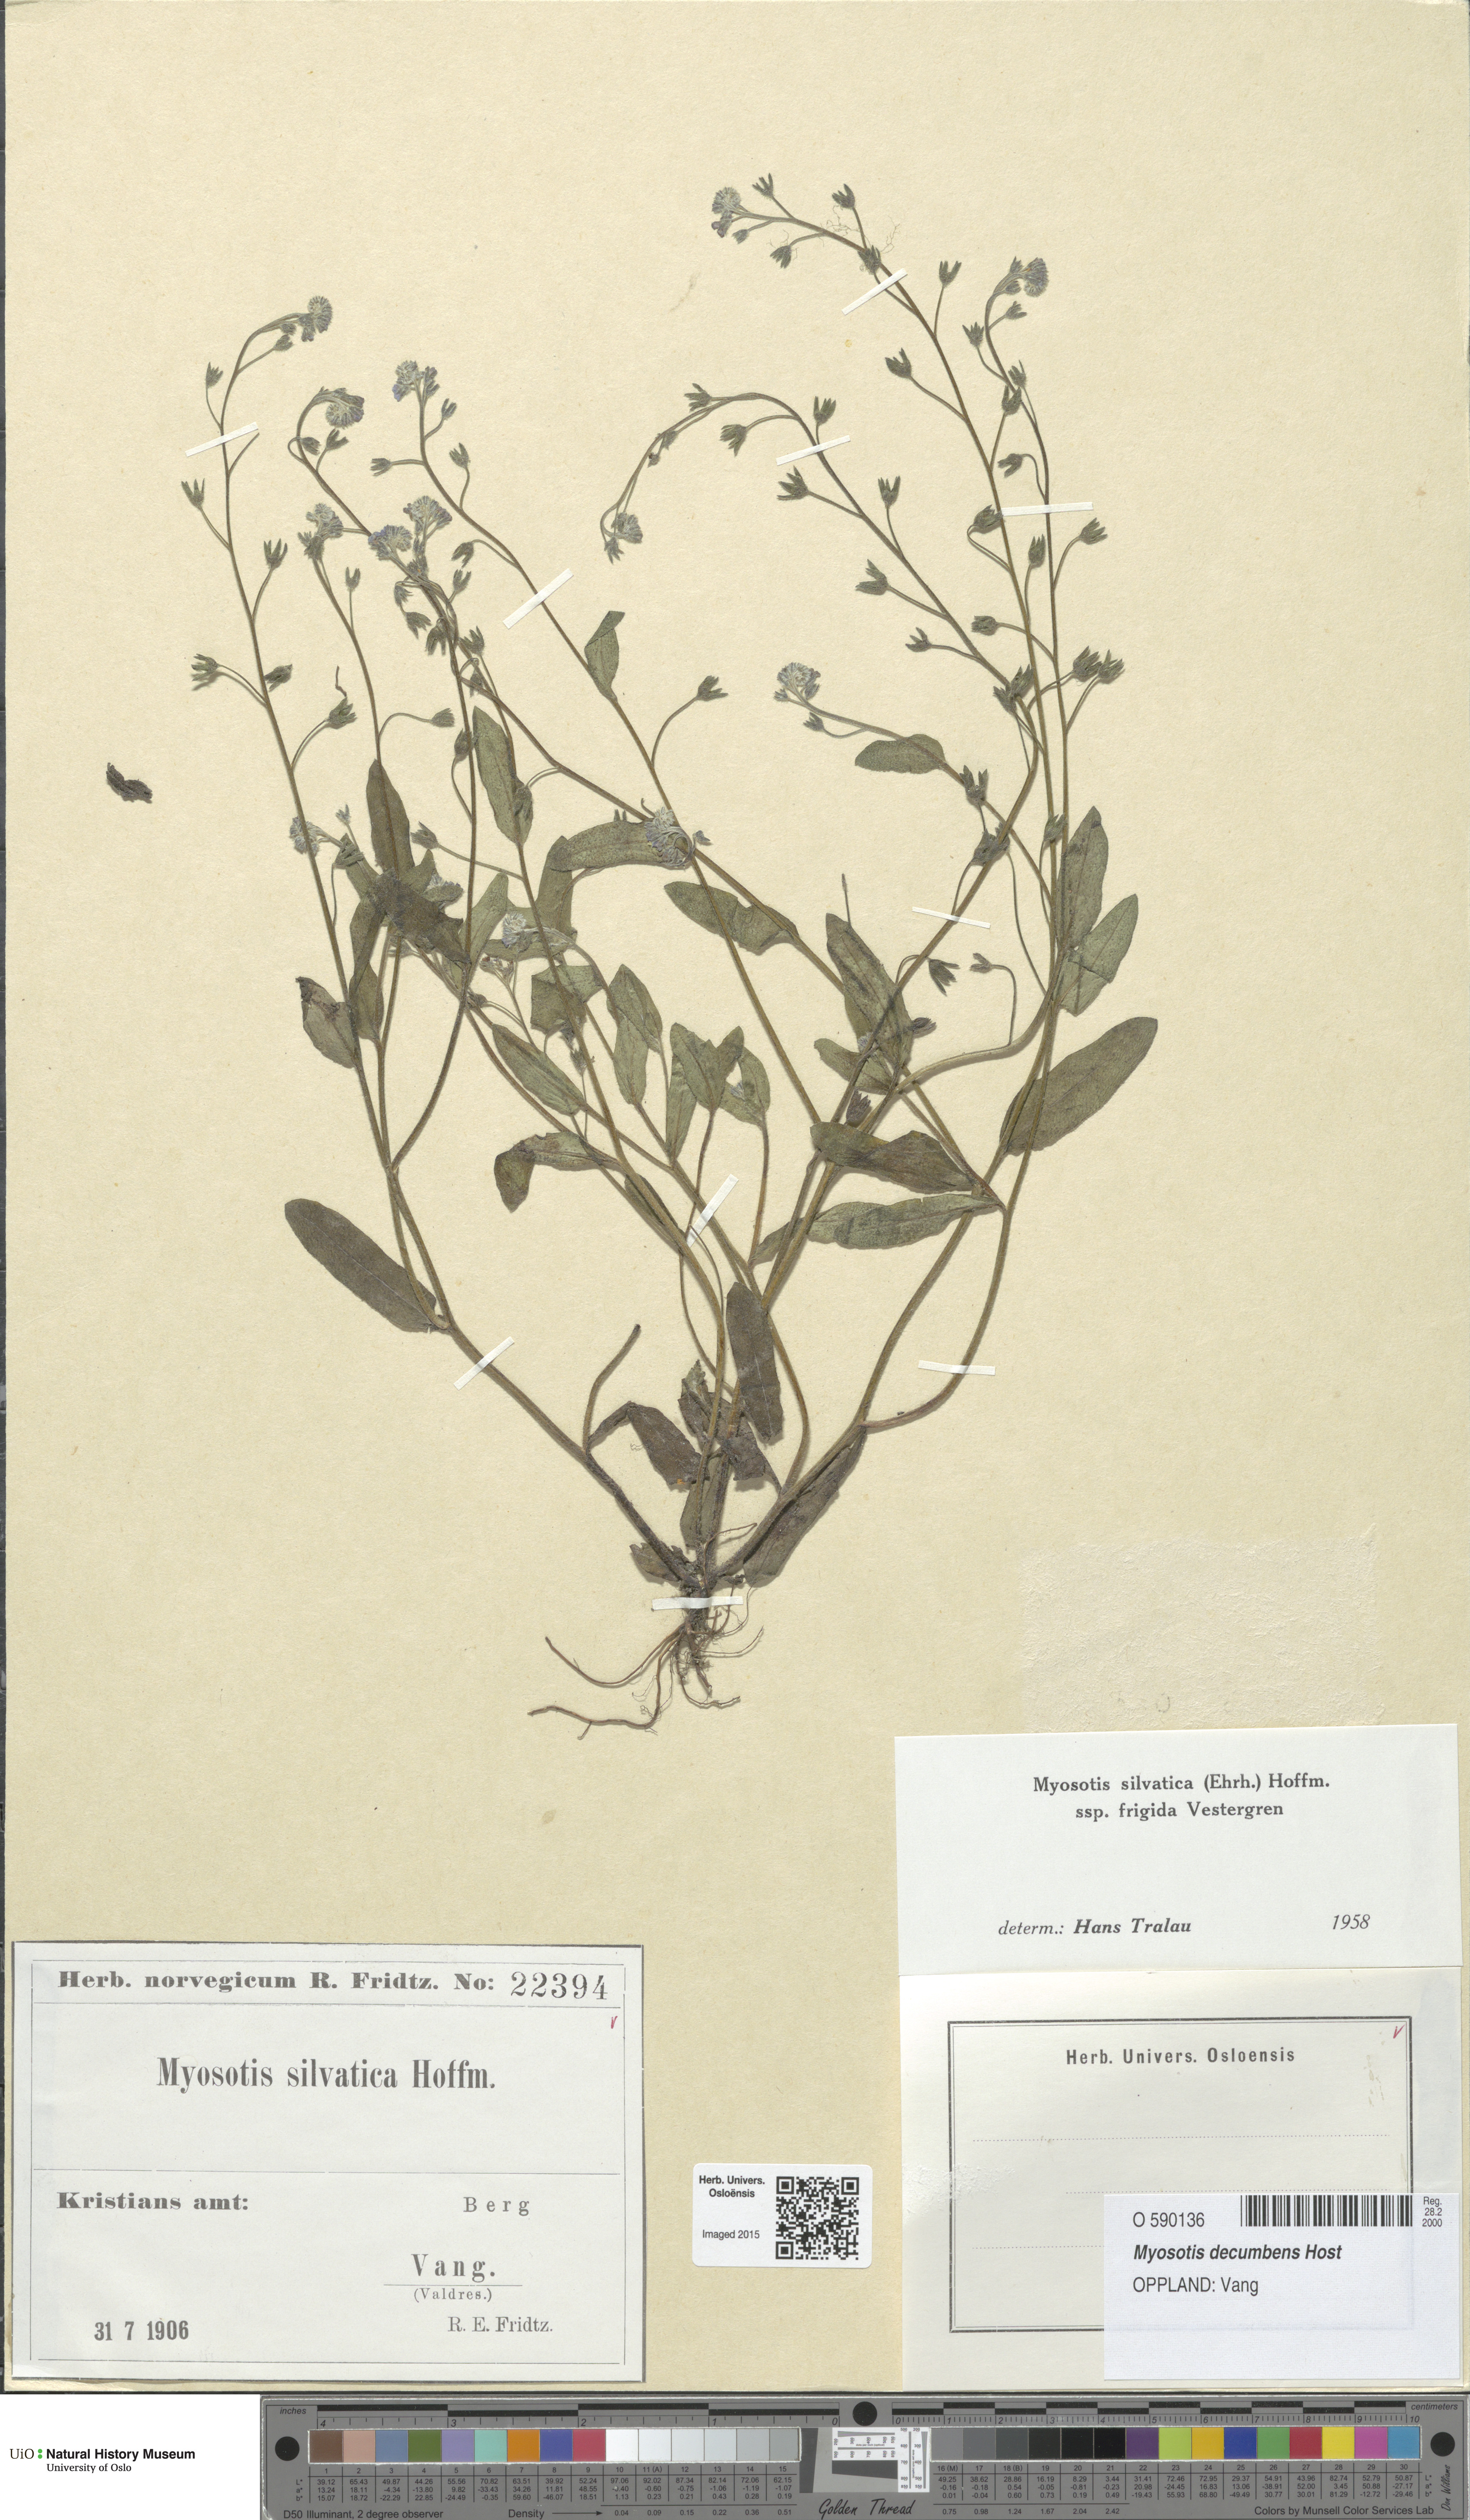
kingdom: Plantae
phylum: Tracheophyta
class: Magnoliopsida
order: Boraginales
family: Boraginaceae
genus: Myosotis
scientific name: Myosotis decumbens
